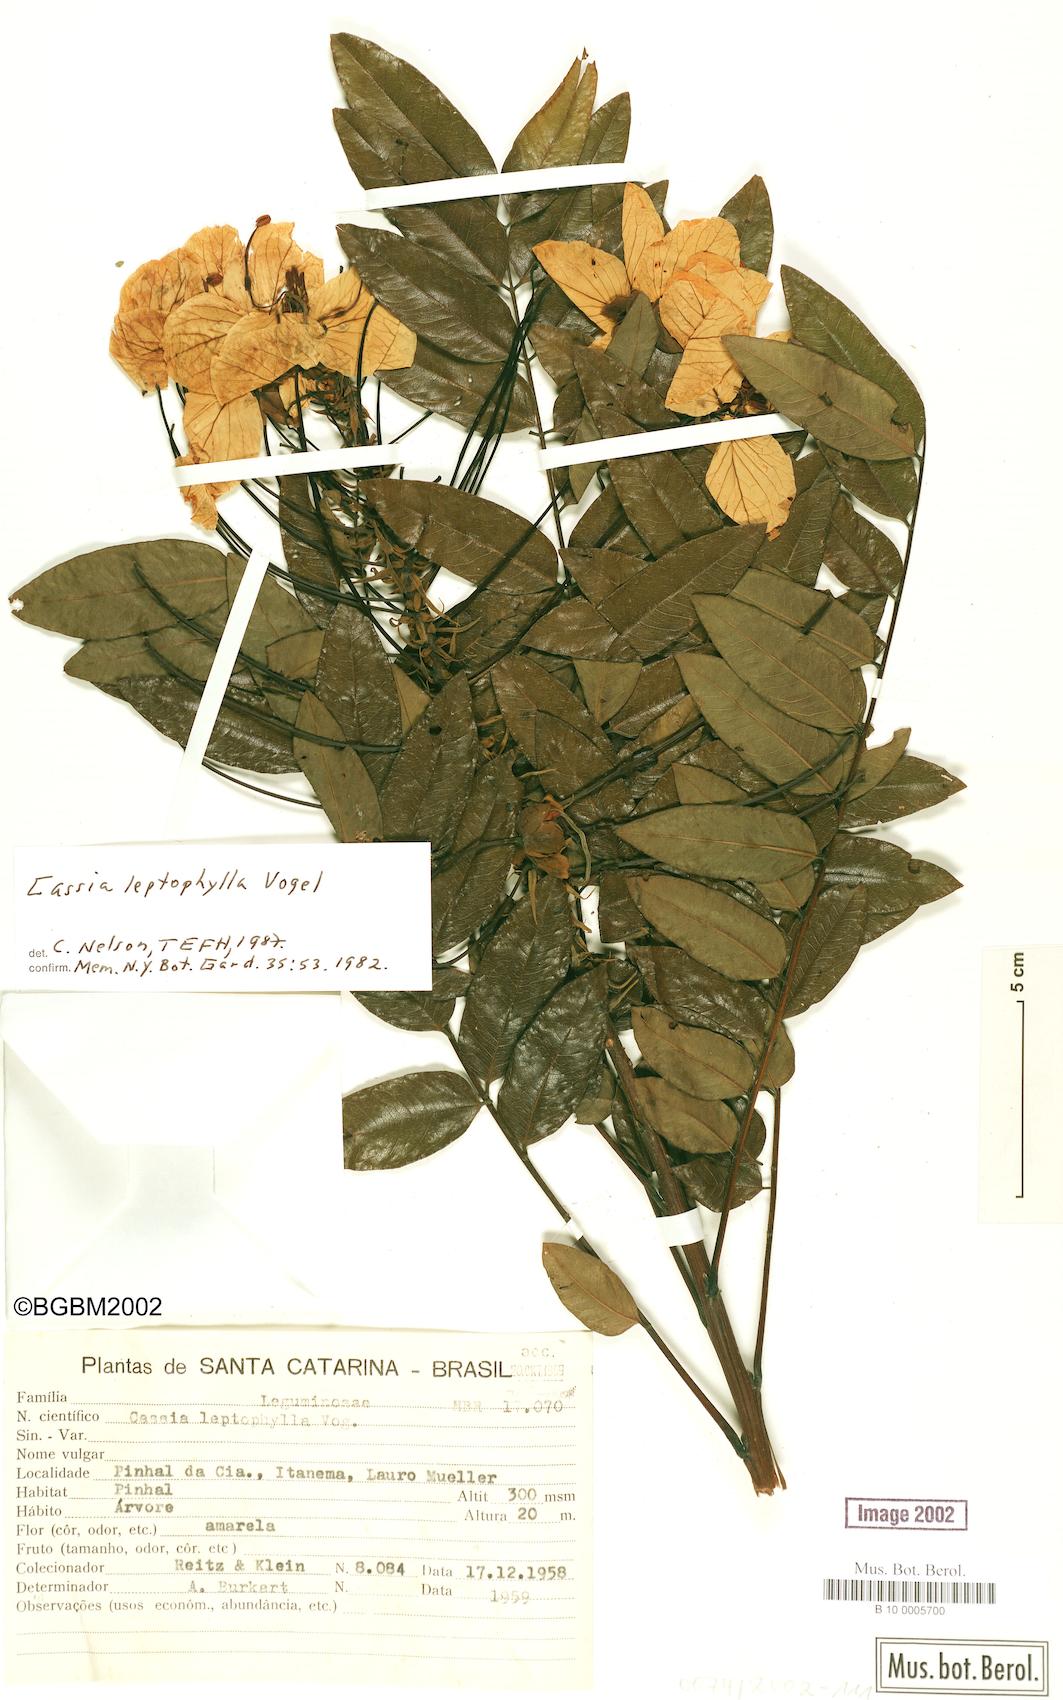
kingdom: Plantae
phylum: Tracheophyta
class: Magnoliopsida
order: Fabales
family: Fabaceae
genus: Cassia
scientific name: Cassia leptophylla
